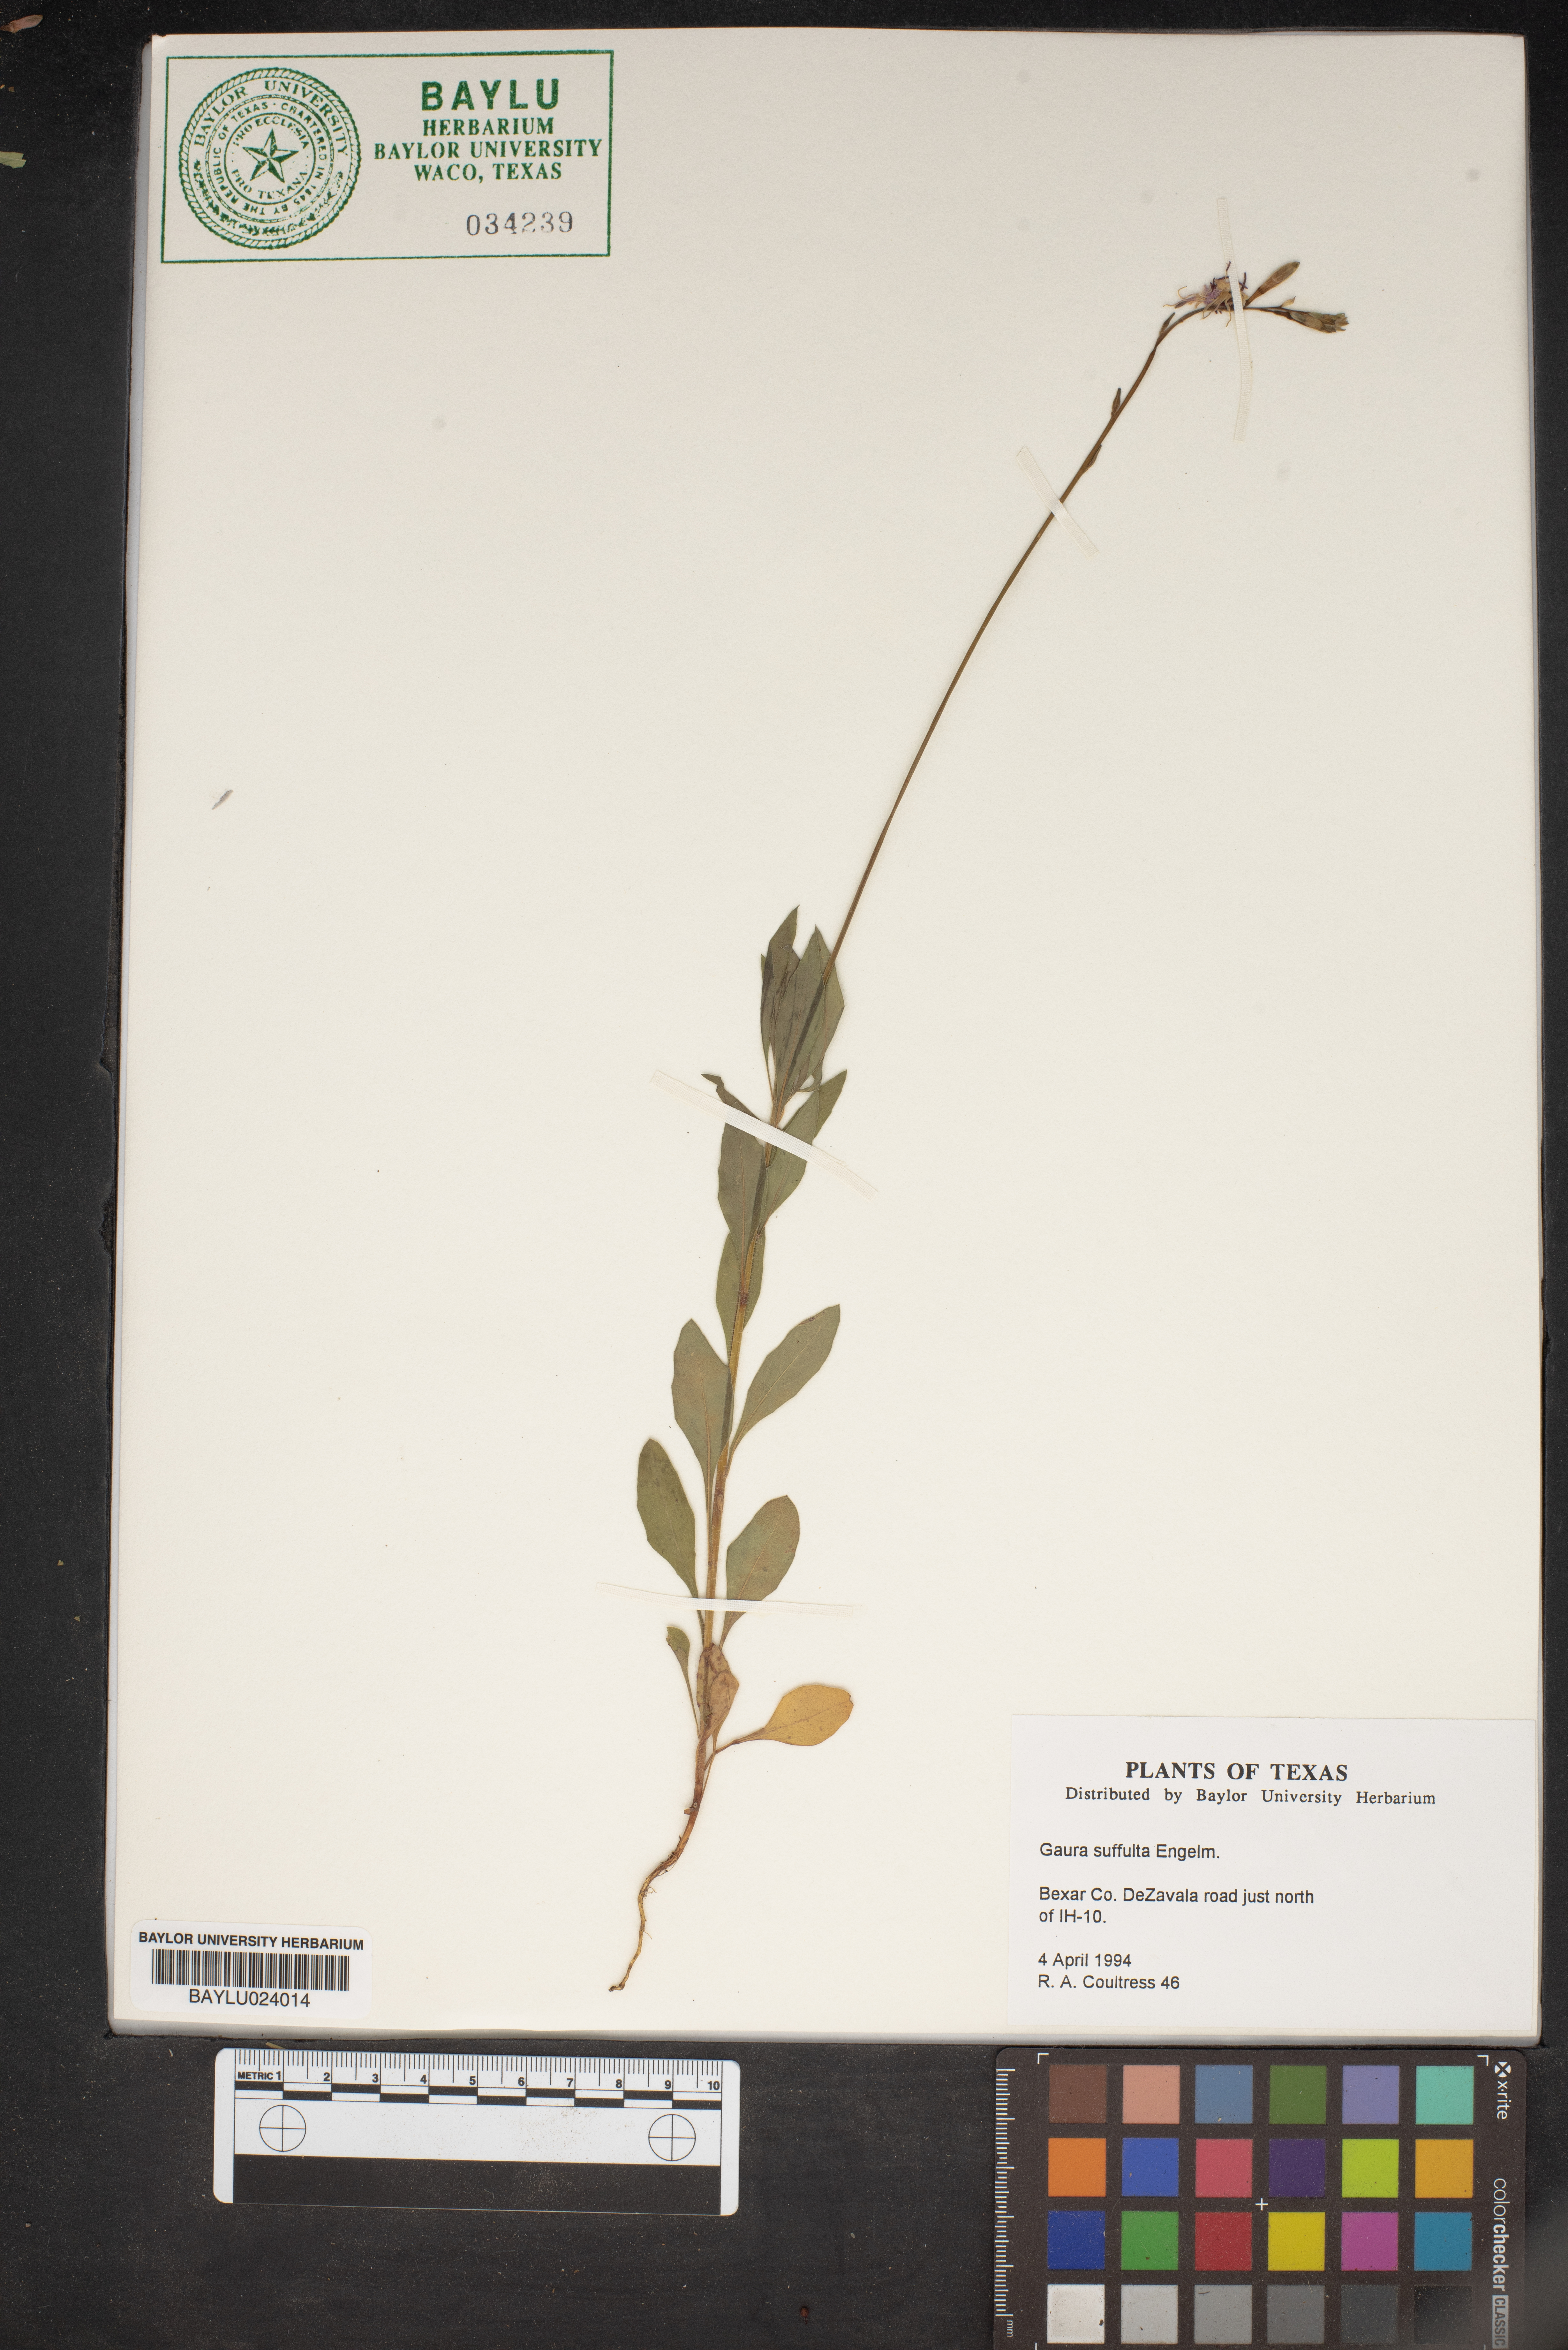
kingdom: Plantae
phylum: Tracheophyta
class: Magnoliopsida
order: Myrtales
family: Onagraceae
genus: Oenothera
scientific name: Oenothera Gaura suffulta
